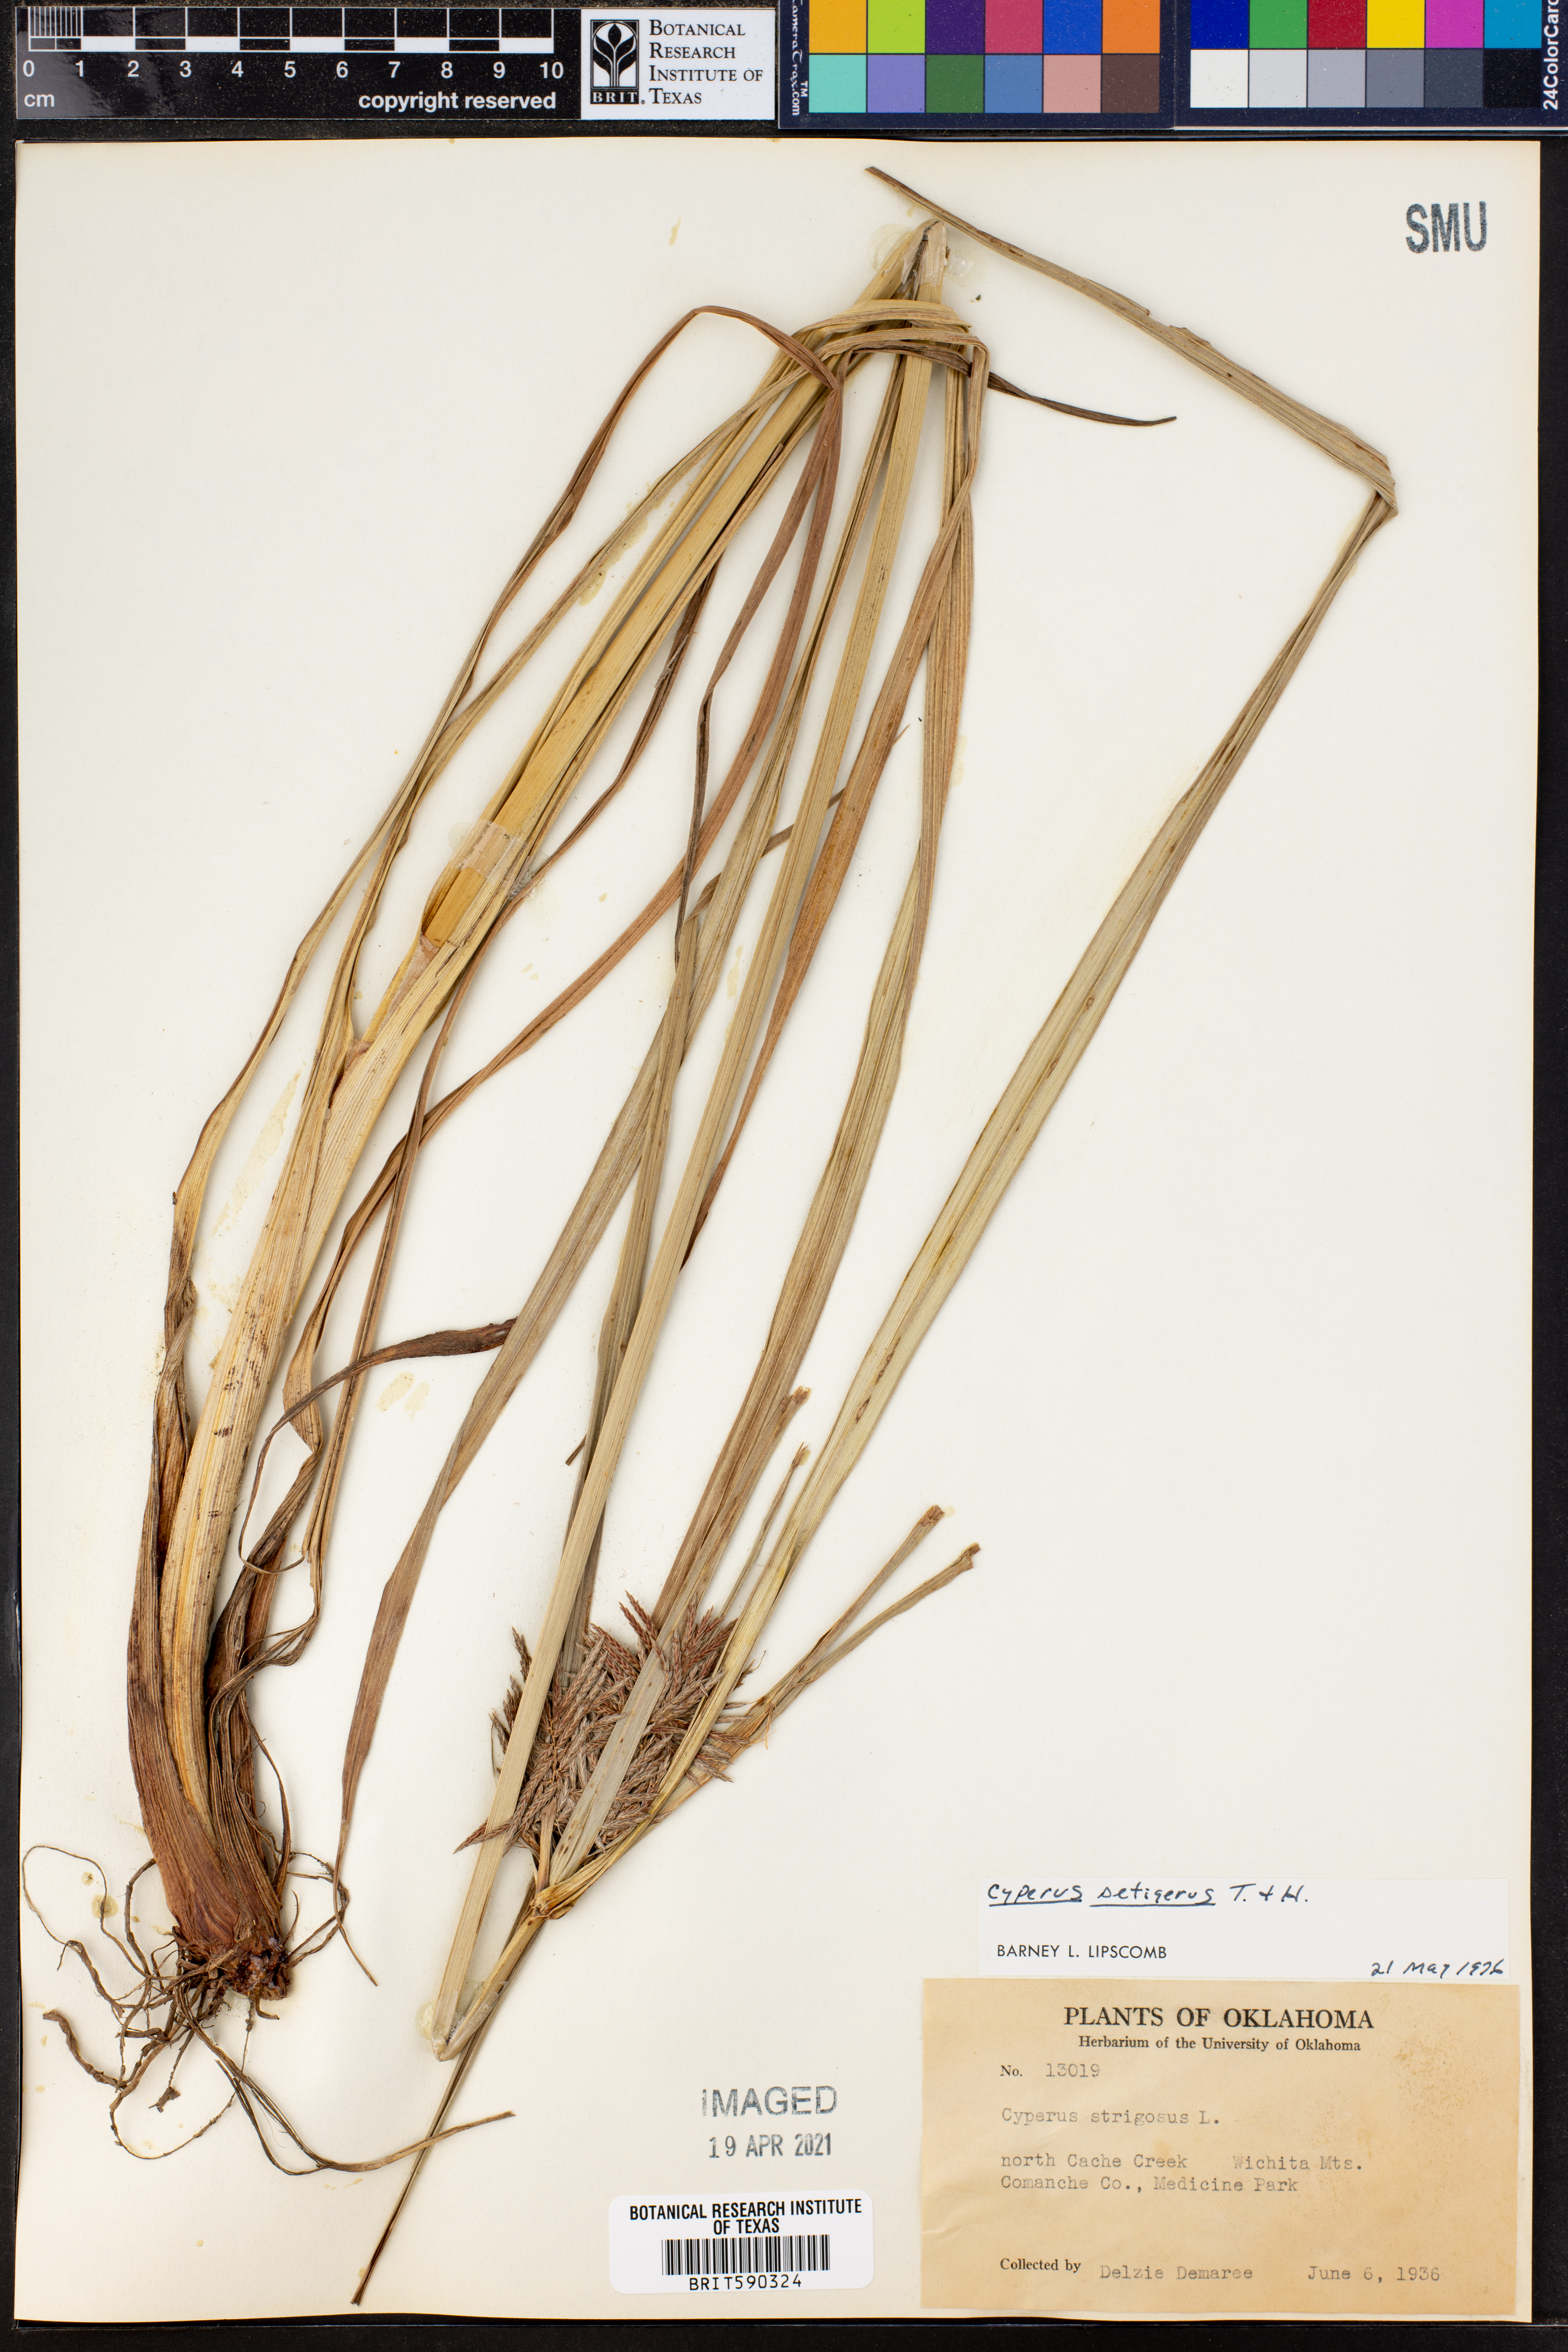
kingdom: Plantae
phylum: Tracheophyta
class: Liliopsida
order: Poales
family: Cyperaceae
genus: Cyperus
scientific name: Cyperus setigerus
